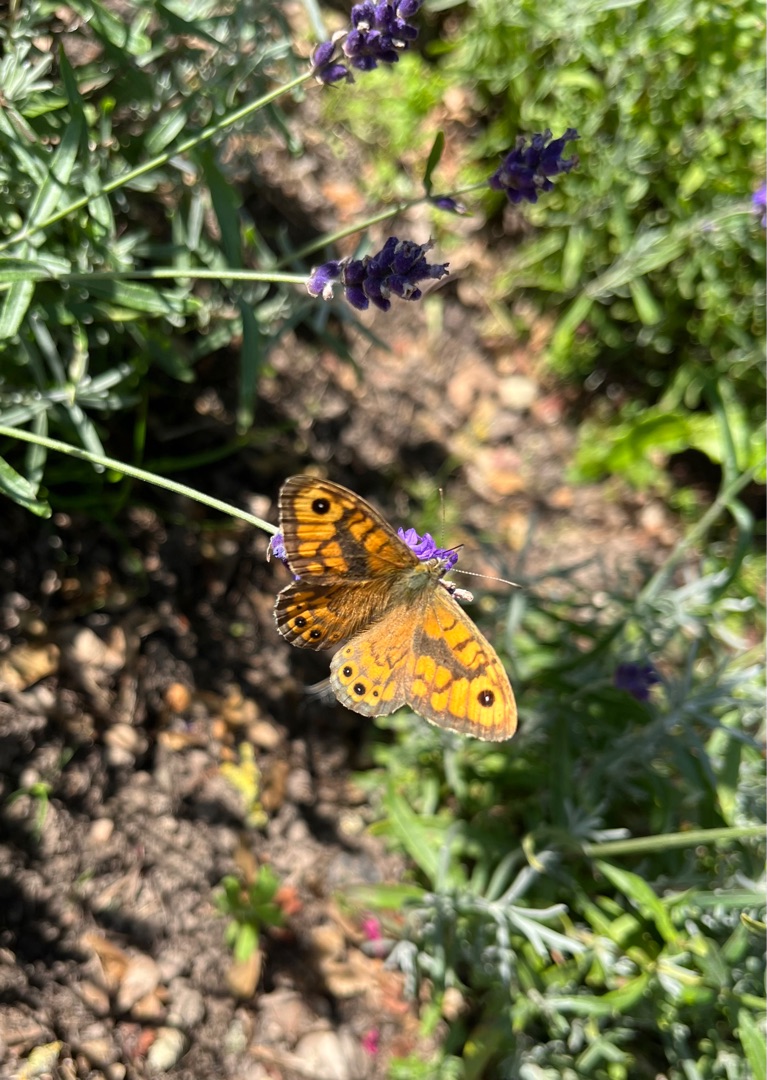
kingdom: Animalia
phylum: Arthropoda
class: Insecta
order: Lepidoptera
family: Nymphalidae
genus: Pararge
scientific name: Pararge Lasiommata megera
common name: Vejrandøje
